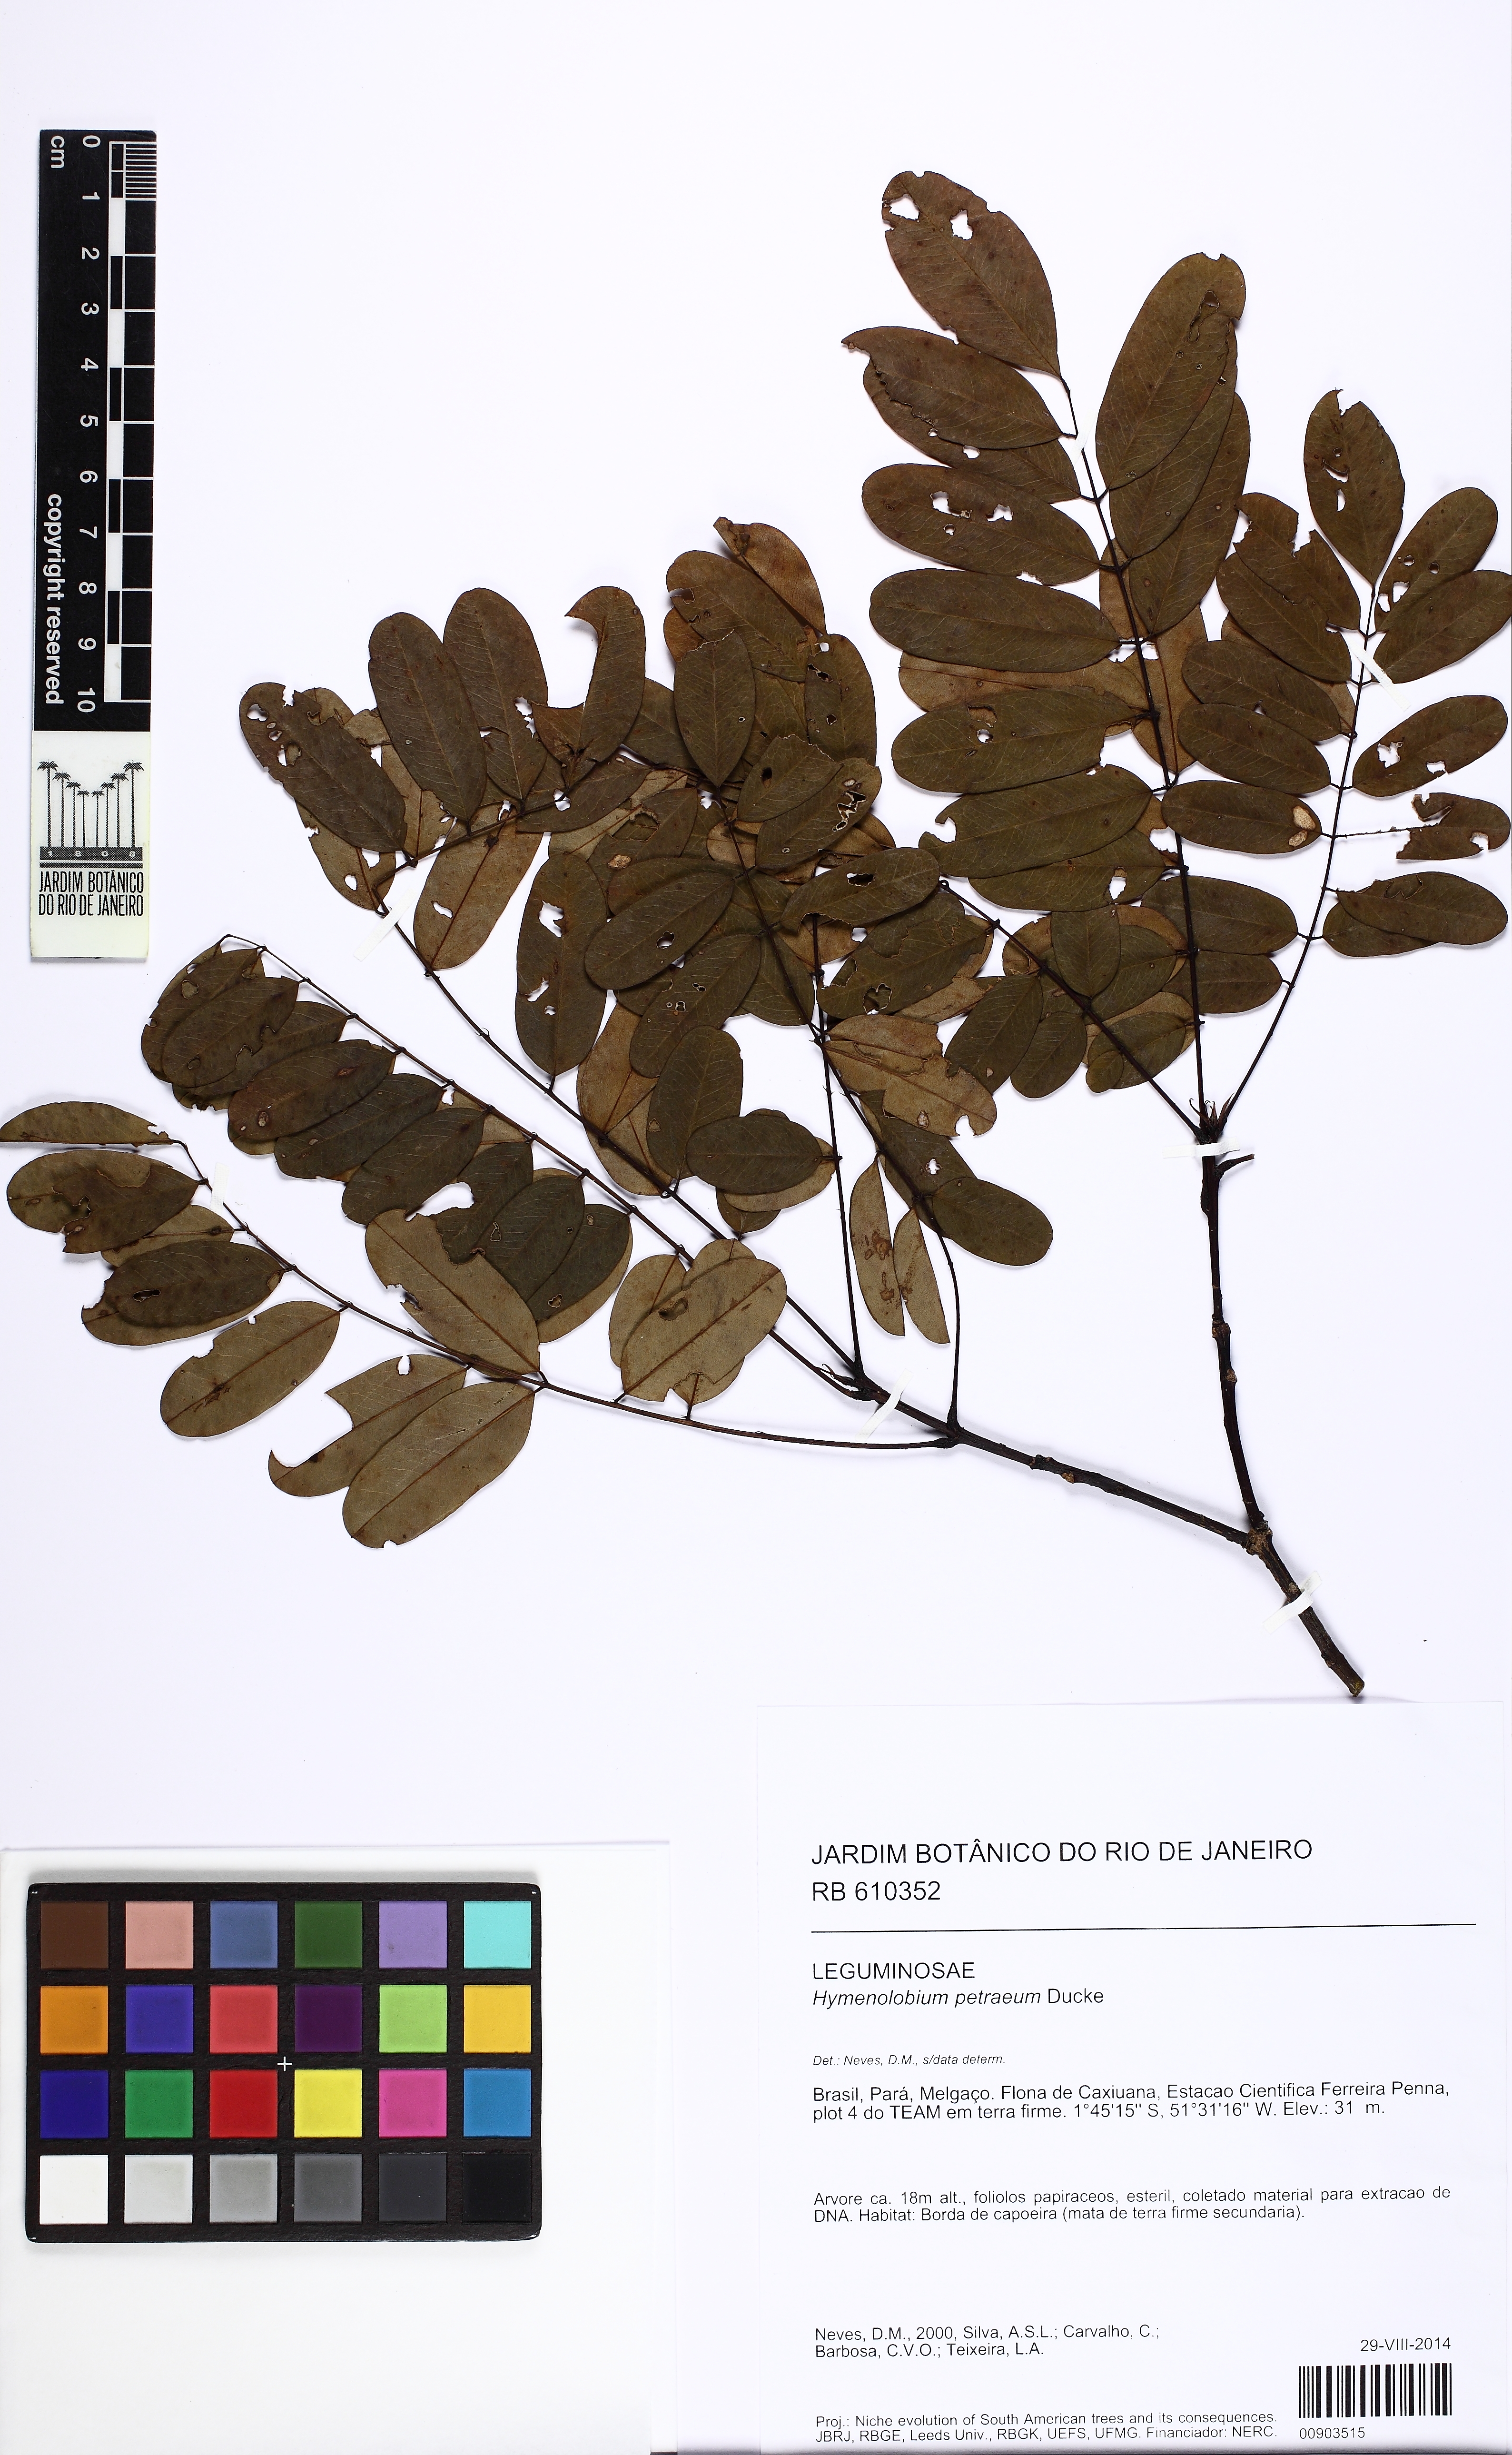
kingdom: Plantae
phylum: Tracheophyta
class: Magnoliopsida
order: Fabales
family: Fabaceae
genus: Hymenolobium
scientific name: Hymenolobium petraeum
